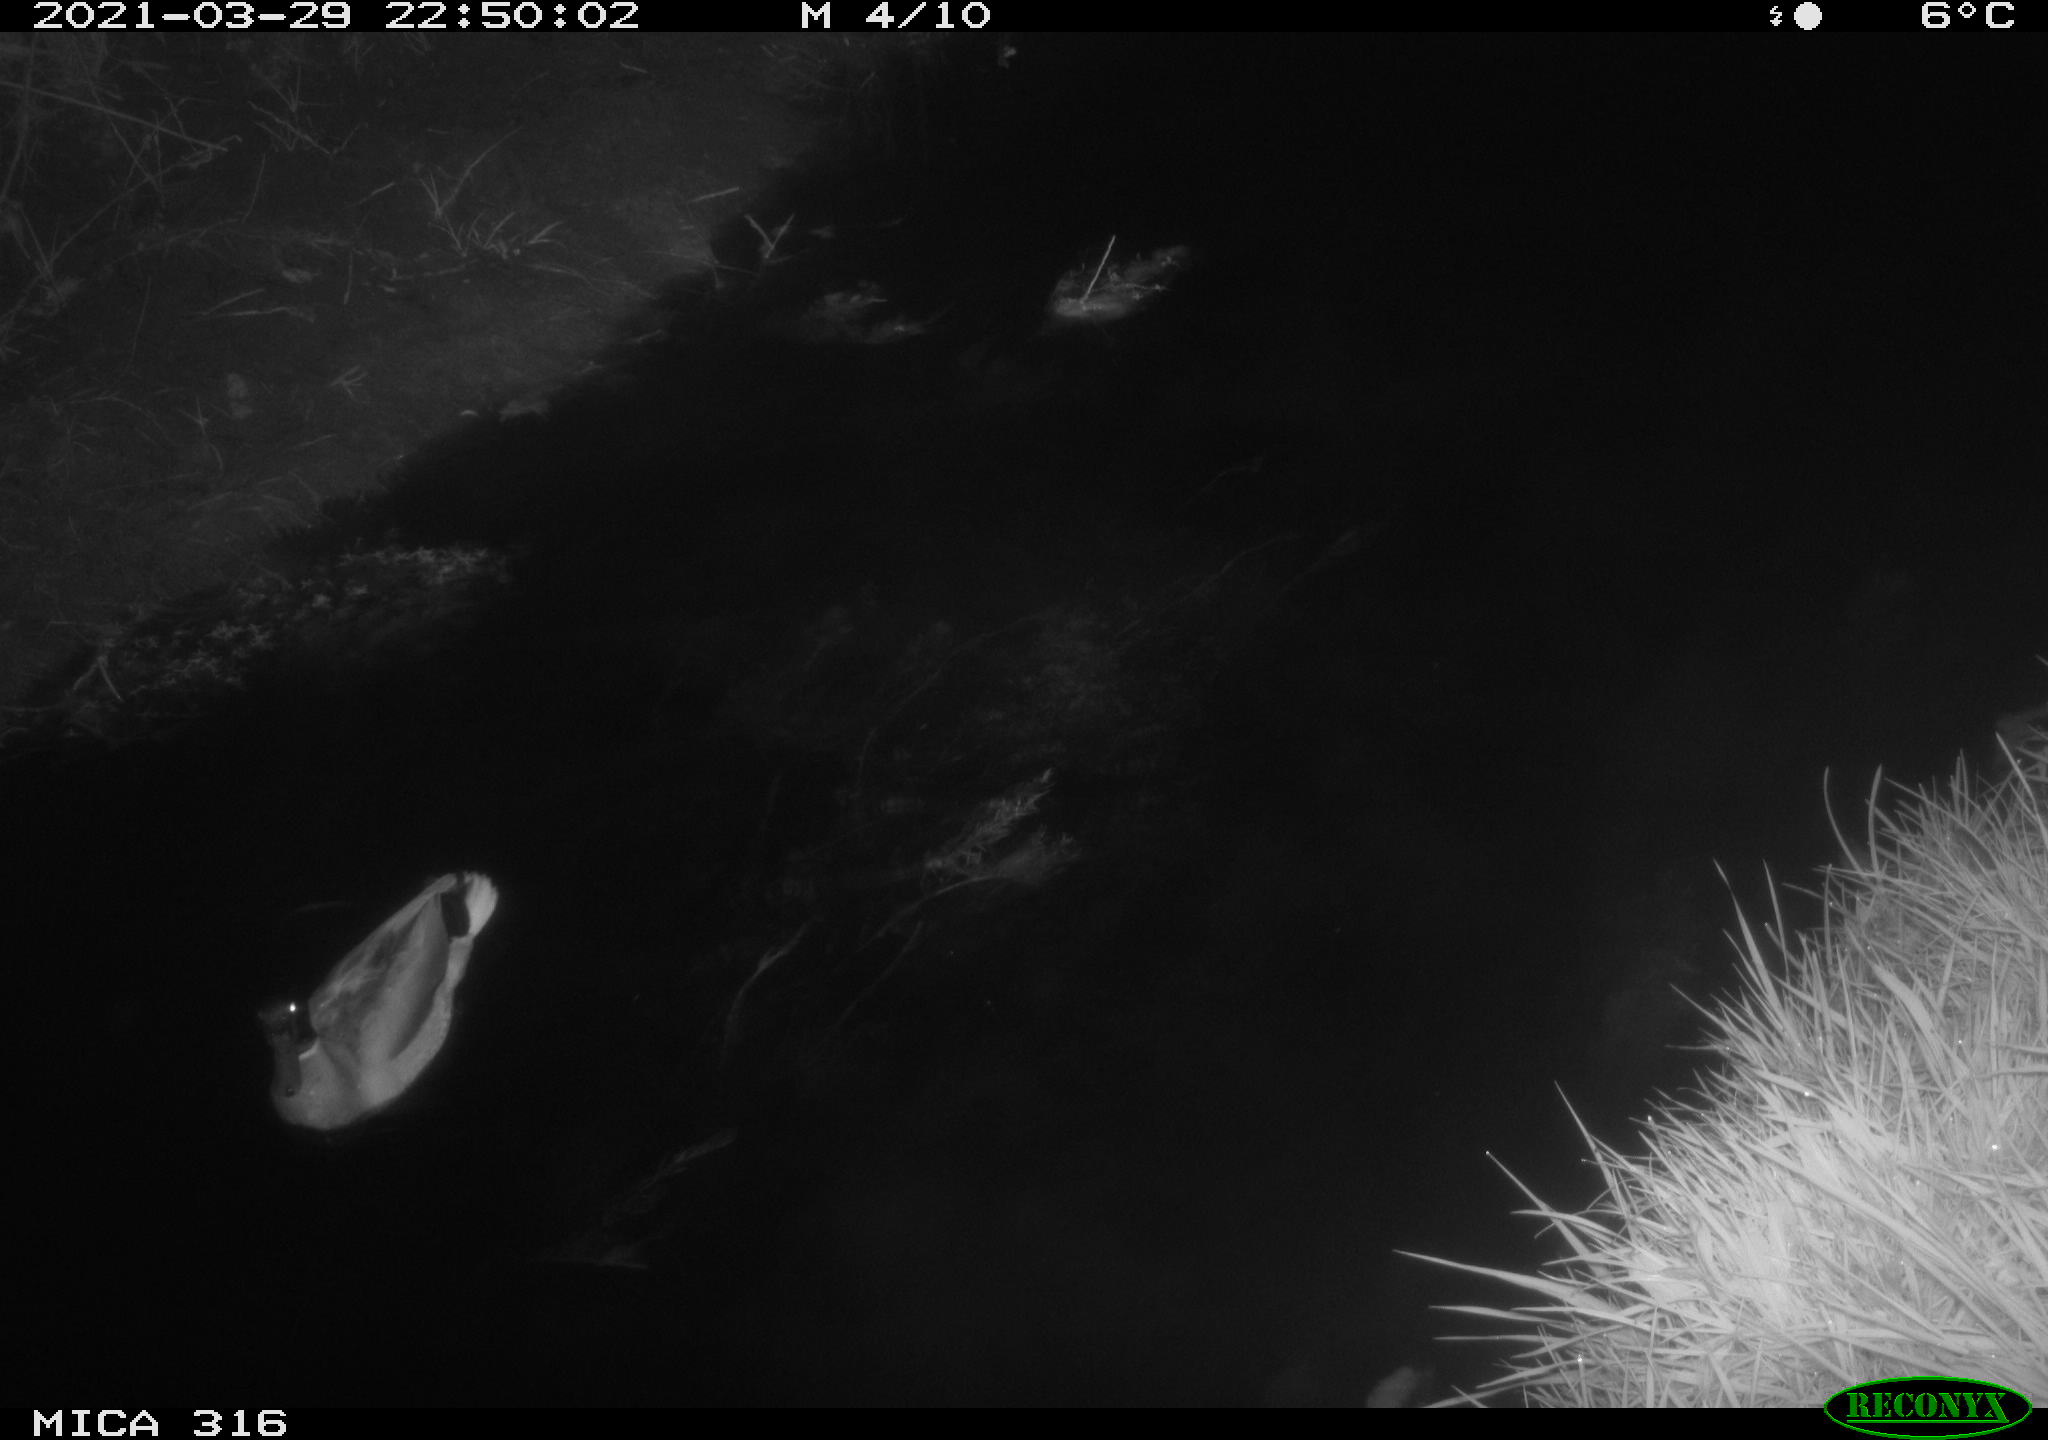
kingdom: Animalia
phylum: Chordata
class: Aves
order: Anseriformes
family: Anatidae
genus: Anas
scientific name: Anas platyrhynchos
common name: Mallard
